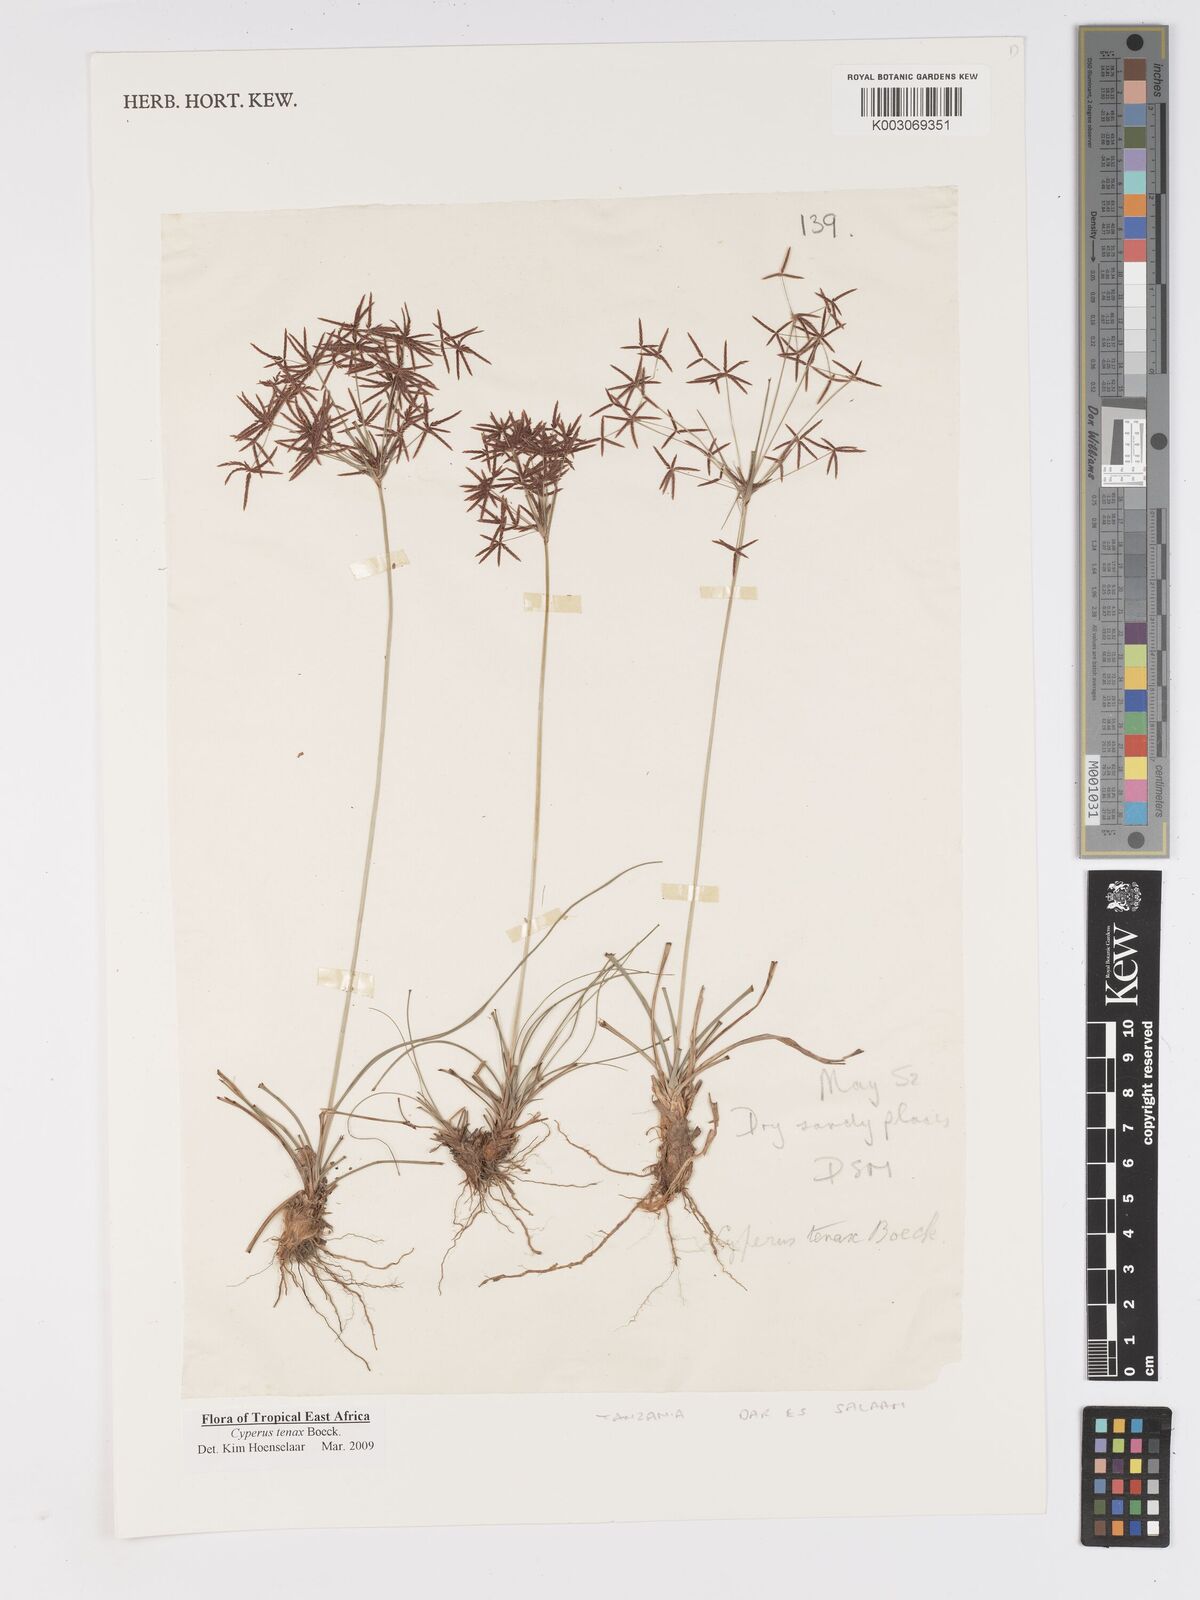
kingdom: Plantae
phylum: Tracheophyta
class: Liliopsida
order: Poales
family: Cyperaceae
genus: Cyperus
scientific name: Cyperus tenax
